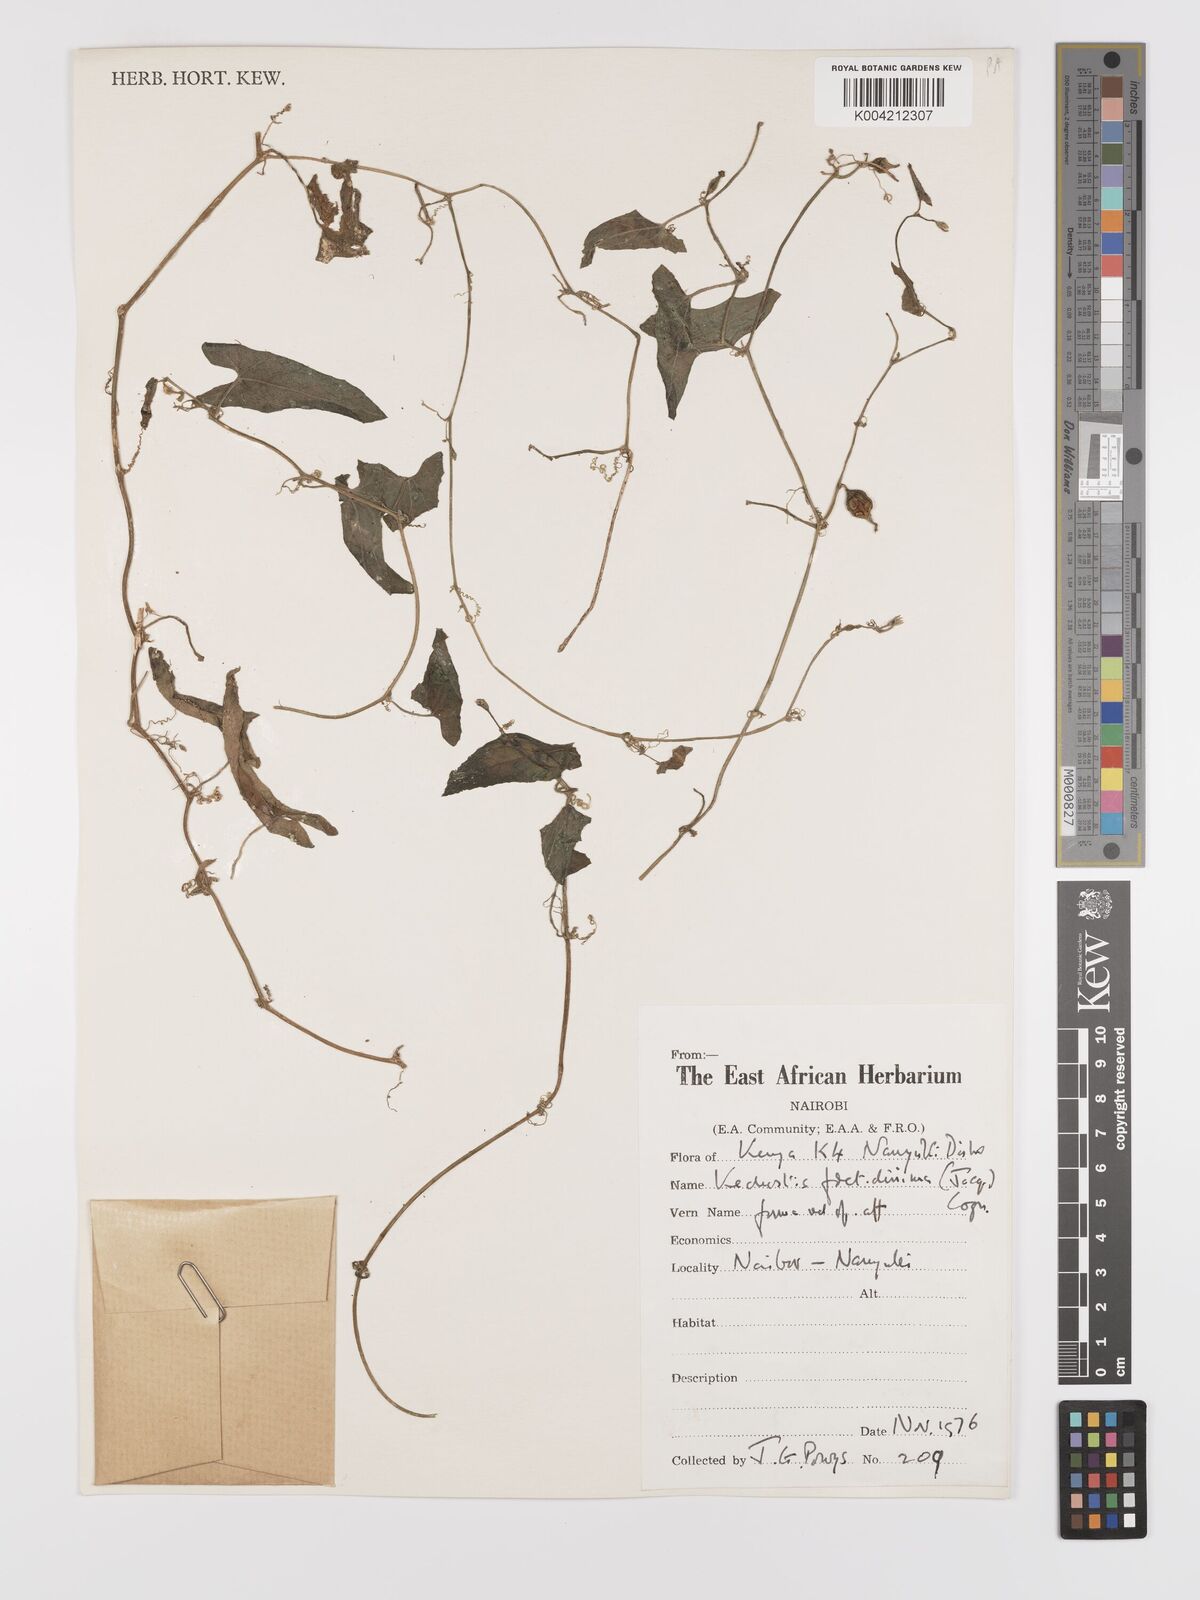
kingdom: Plantae
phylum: Tracheophyta
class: Magnoliopsida
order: Cucurbitales
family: Cucurbitaceae
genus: Kedrostis
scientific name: Kedrostis foetidissima
